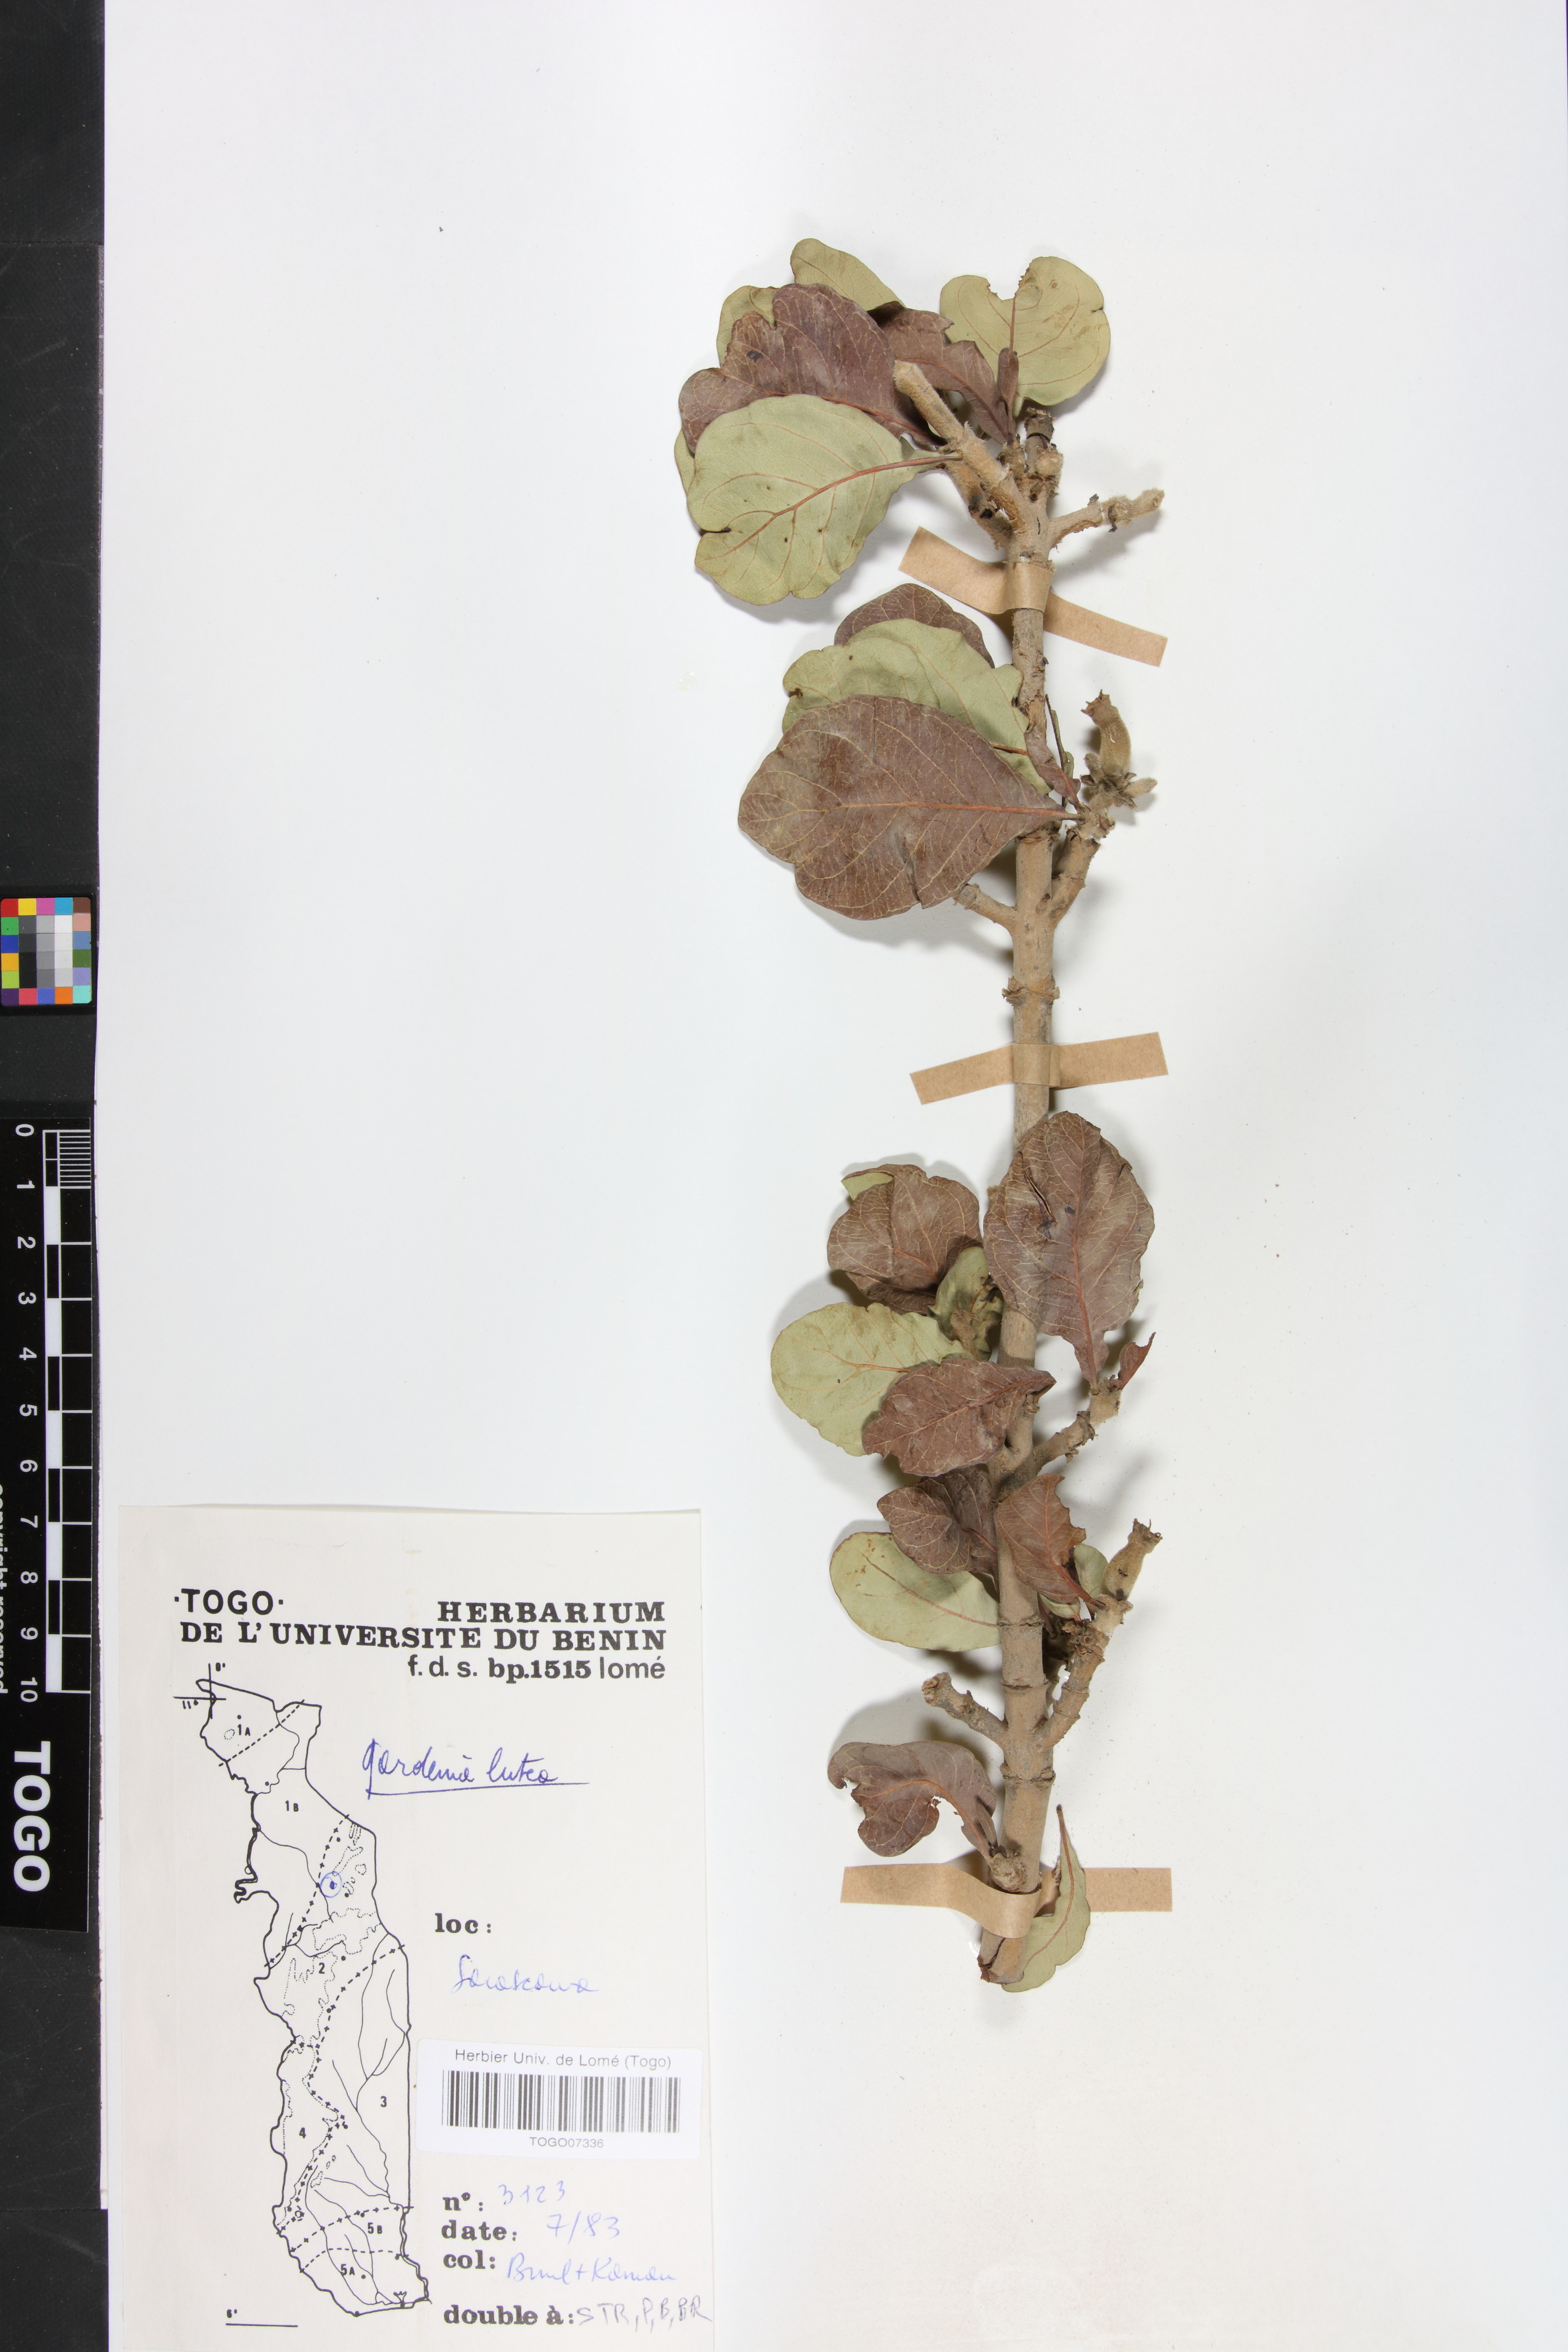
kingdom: Plantae
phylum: Tracheophyta
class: Magnoliopsida
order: Gentianales
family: Rubiaceae
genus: Gardenia
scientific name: Gardenia ternifolia
